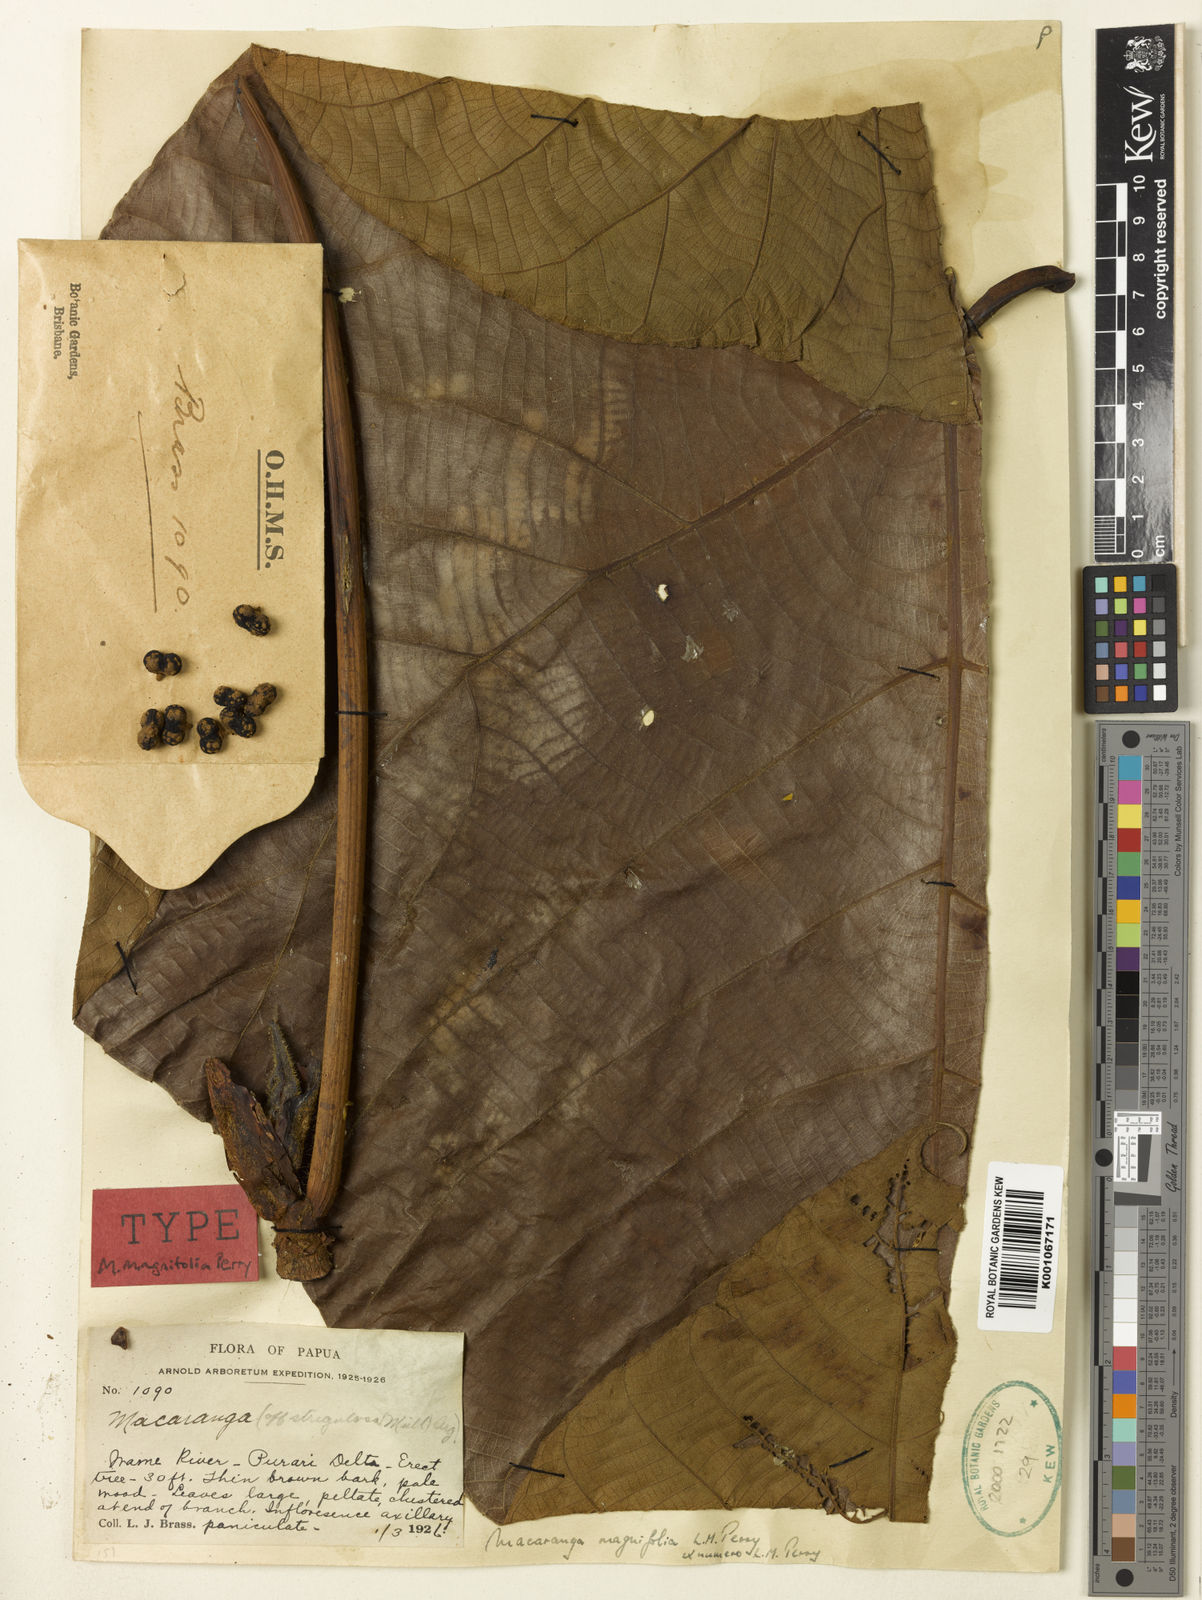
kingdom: Plantae
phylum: Tracheophyta
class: Magnoliopsida
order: Malpighiales
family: Euphorbiaceae
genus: Macaranga
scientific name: Macaranga magnifolia
